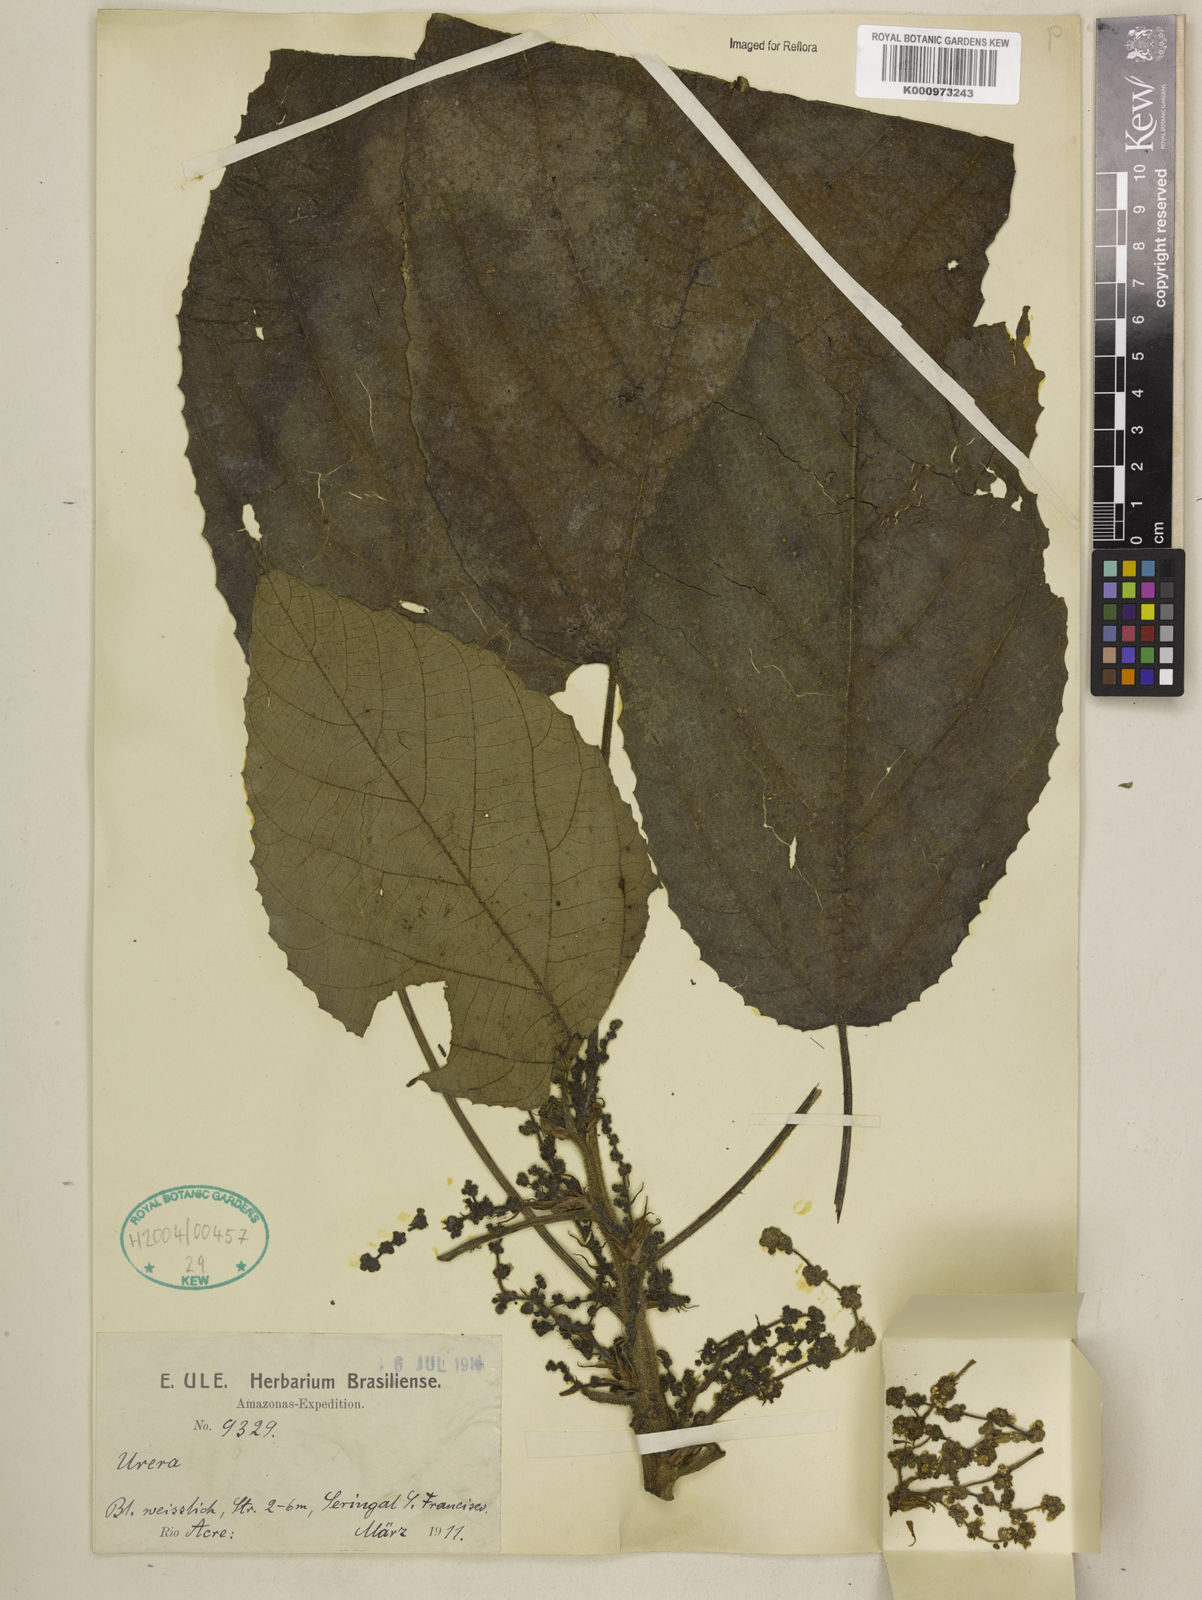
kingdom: Plantae
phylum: Tracheophyta
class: Magnoliopsida
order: Rosales
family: Urticaceae
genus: Urera
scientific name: Urera
